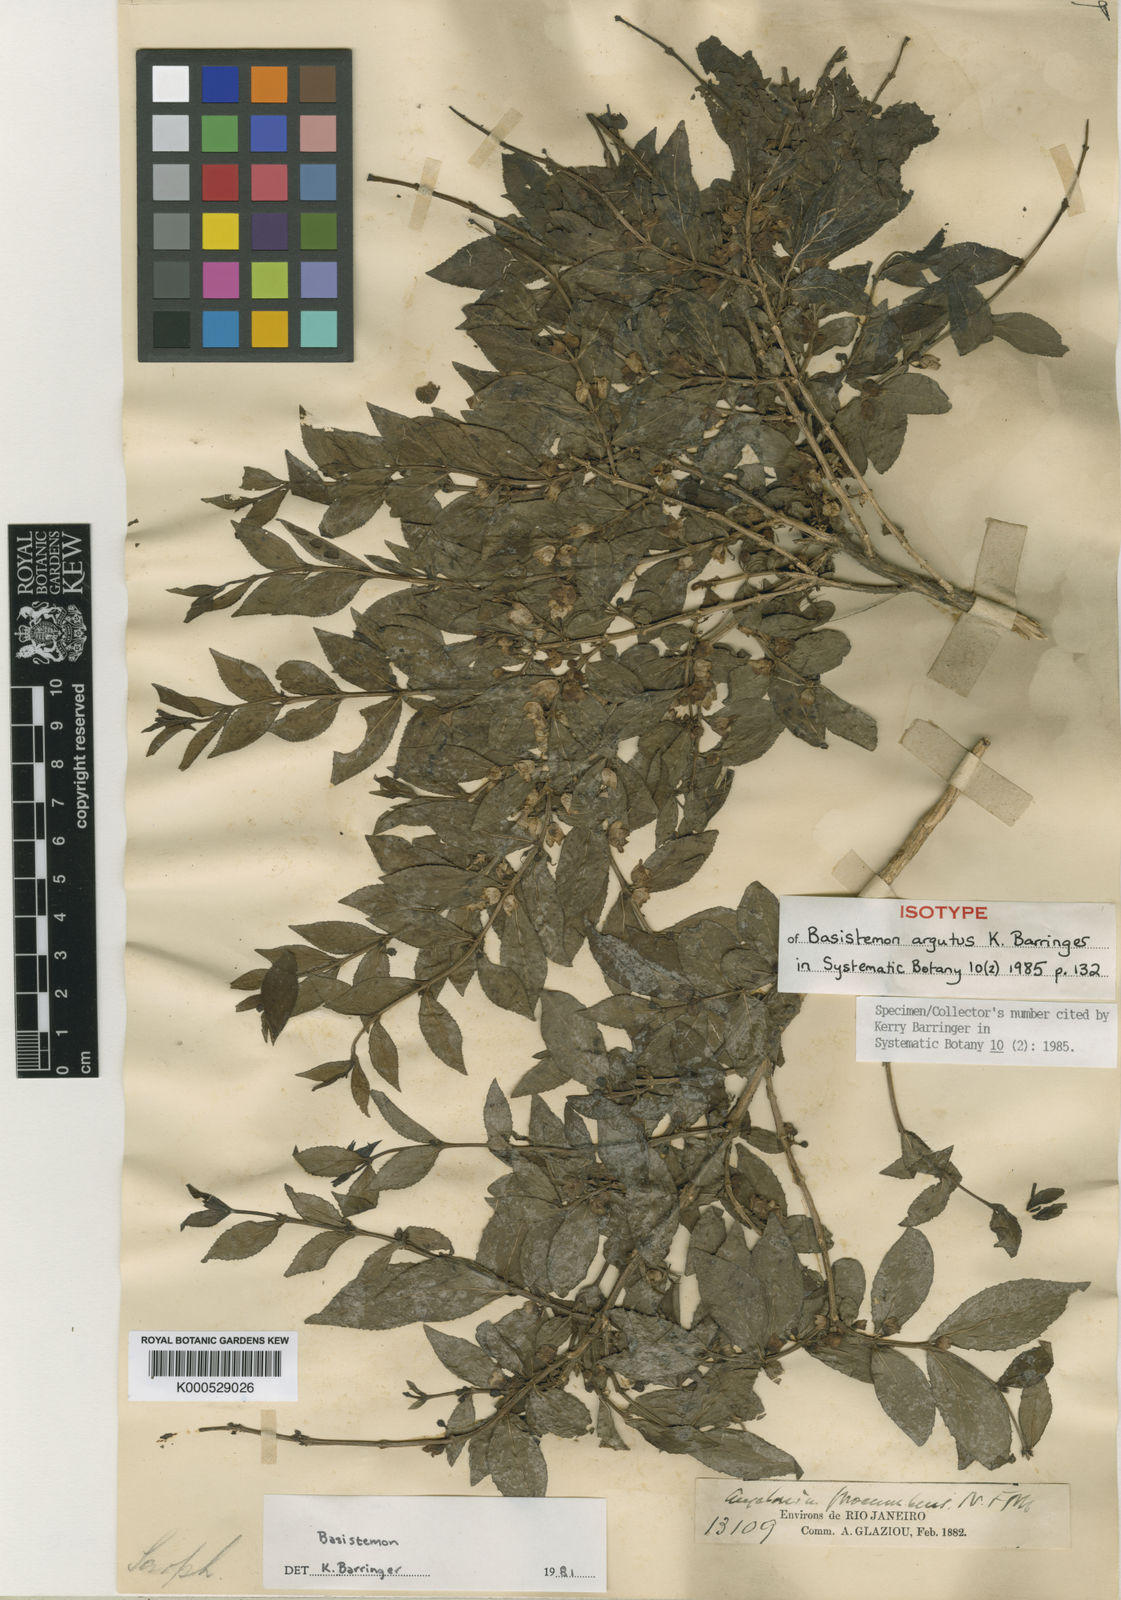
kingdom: Plantae
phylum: Tracheophyta
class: Magnoliopsida
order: Lamiales
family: Plantaginaceae
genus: Basistemon
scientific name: Basistemon argutus
